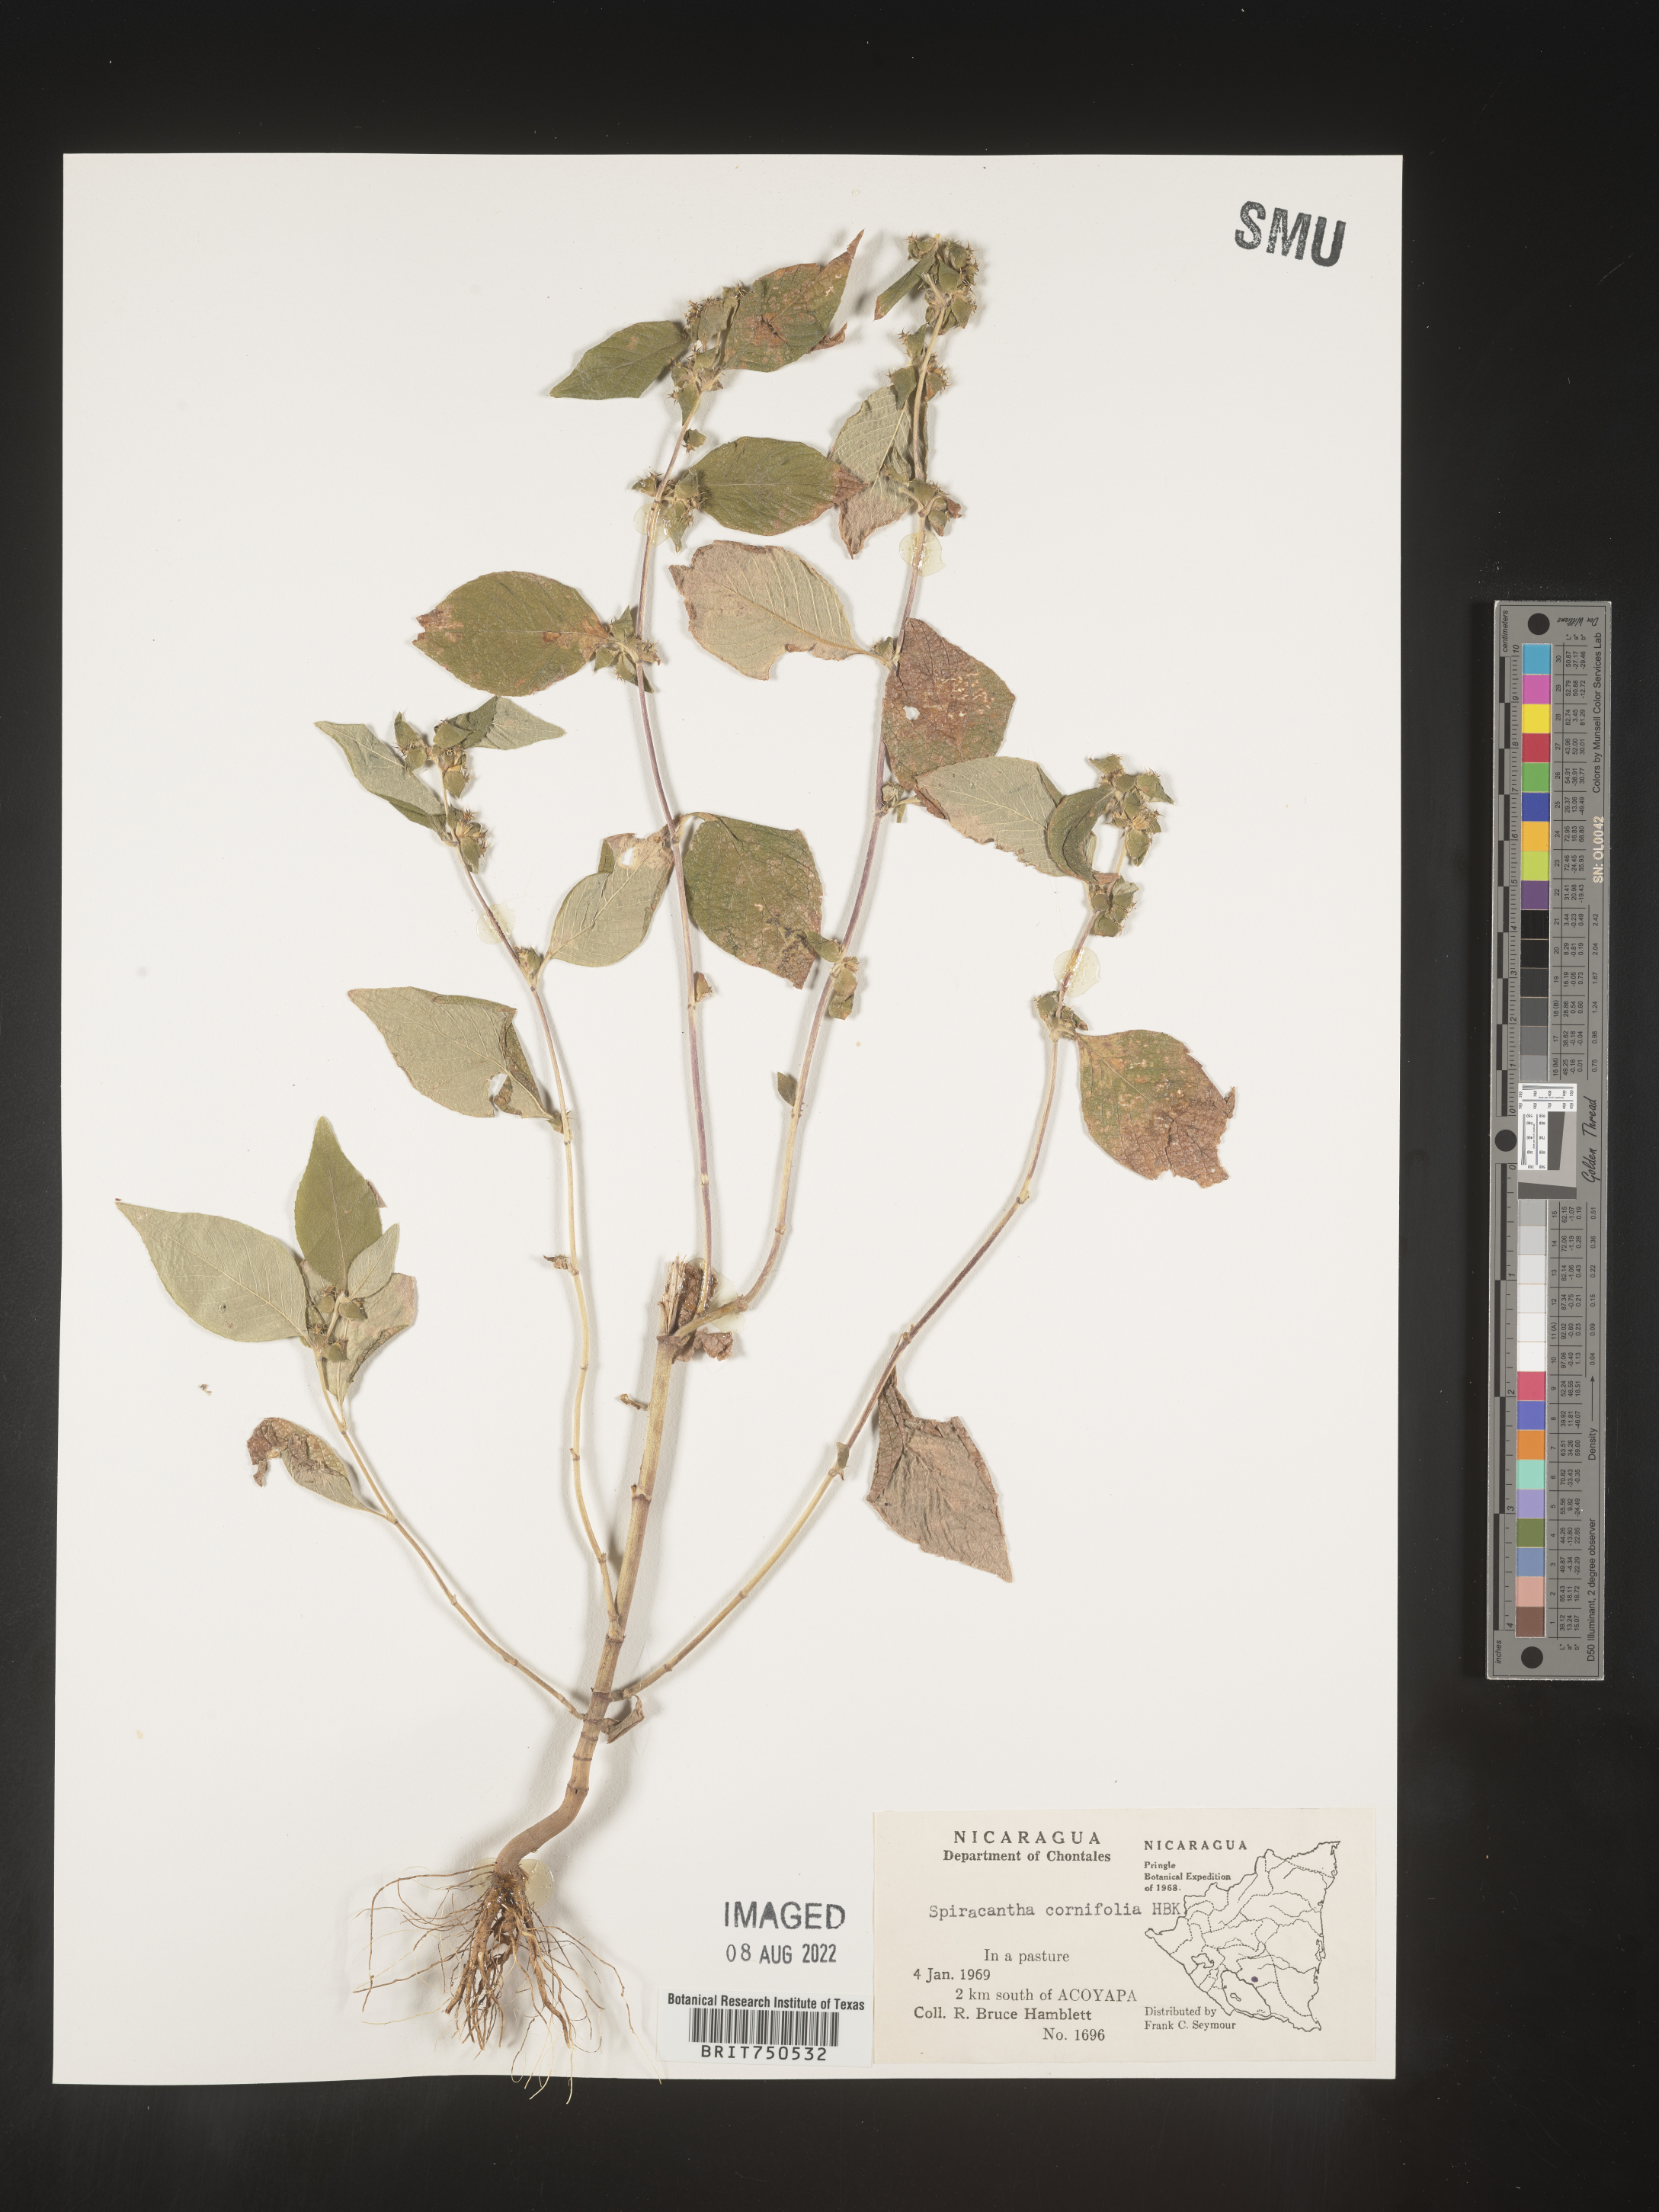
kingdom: Plantae
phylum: Tracheophyta
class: Magnoliopsida
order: Asterales
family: Asteraceae
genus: Spiracantha
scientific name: Spiracantha
